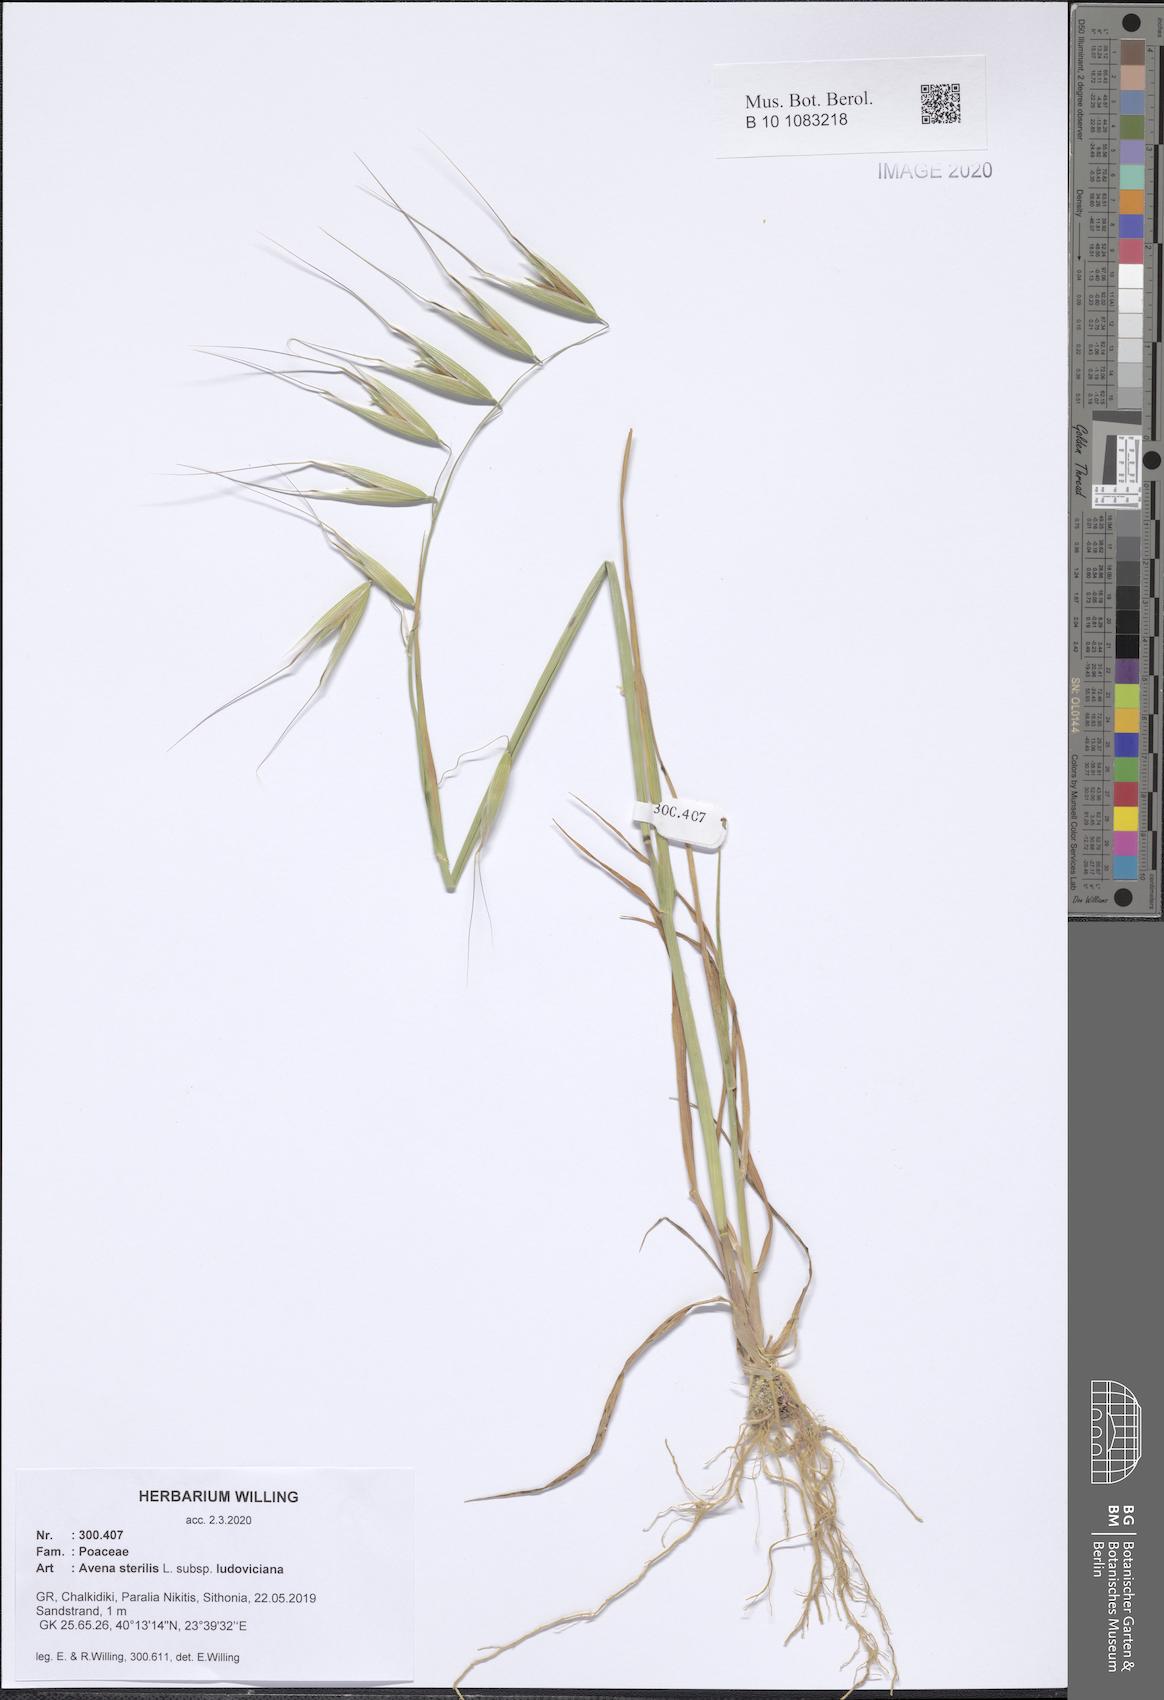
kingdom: Plantae
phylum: Tracheophyta
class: Liliopsida
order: Poales
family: Poaceae
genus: Avena
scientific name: Avena sterilis
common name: Animated oat
